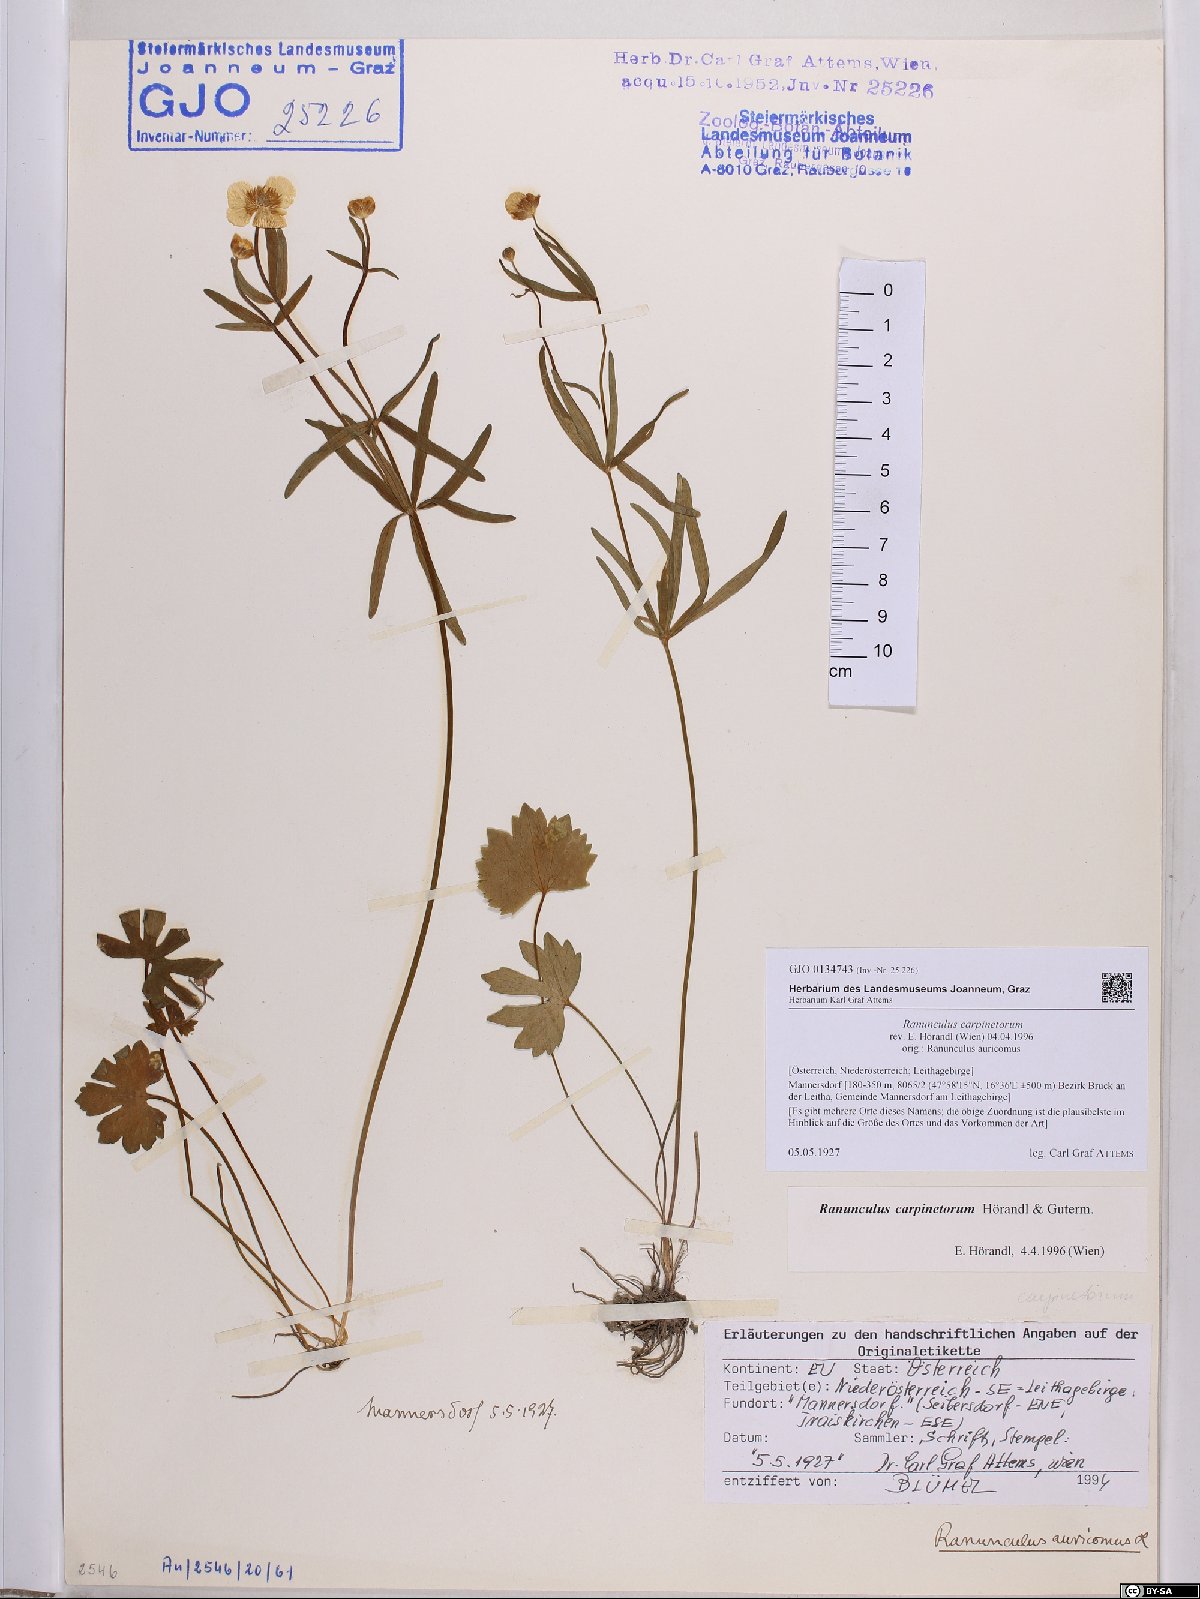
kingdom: Plantae
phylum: Tracheophyta
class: Magnoliopsida
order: Ranunculales
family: Ranunculaceae
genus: Ranunculus
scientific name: Ranunculus carpinetorum
